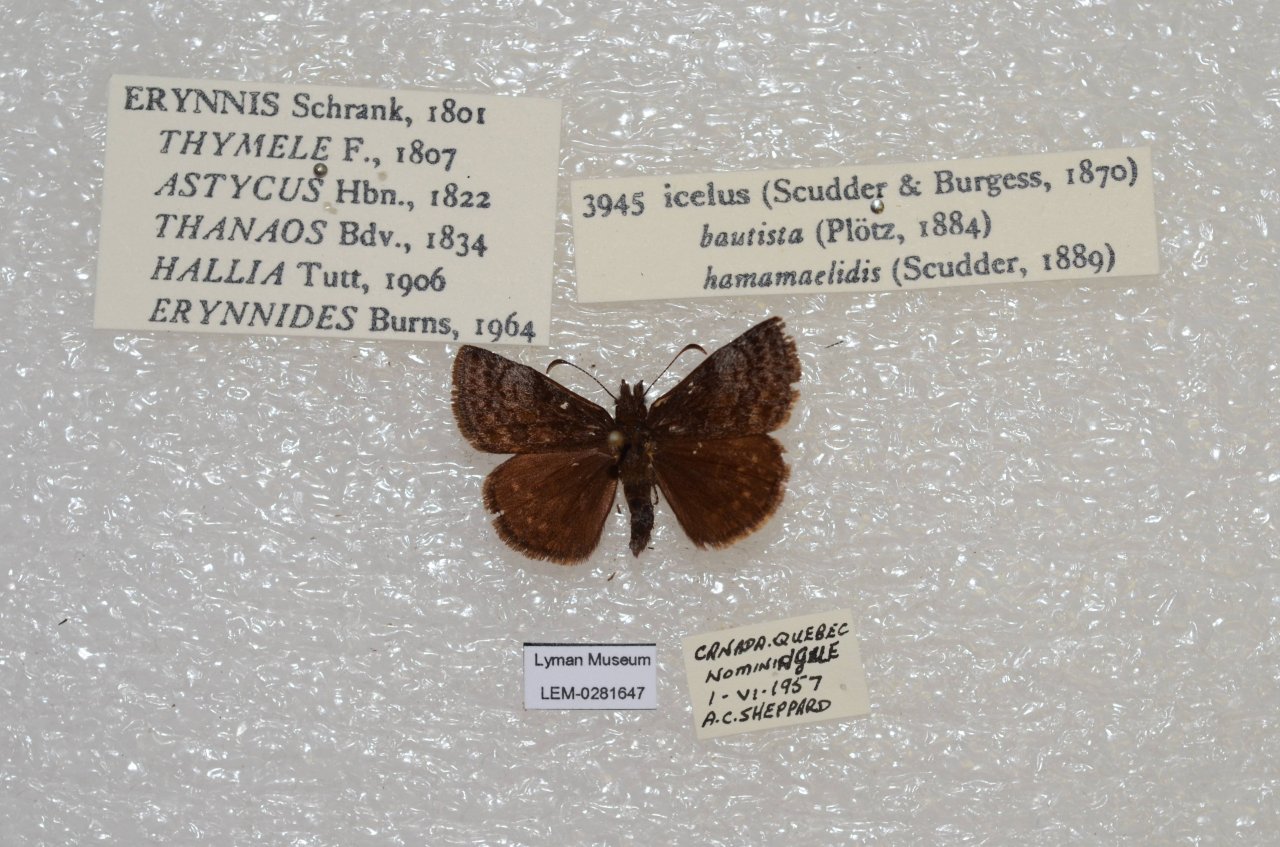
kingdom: Animalia
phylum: Arthropoda
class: Insecta
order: Lepidoptera
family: Hesperiidae
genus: Erynnis
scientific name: Erynnis icelus
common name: Dreamy Duskywing
